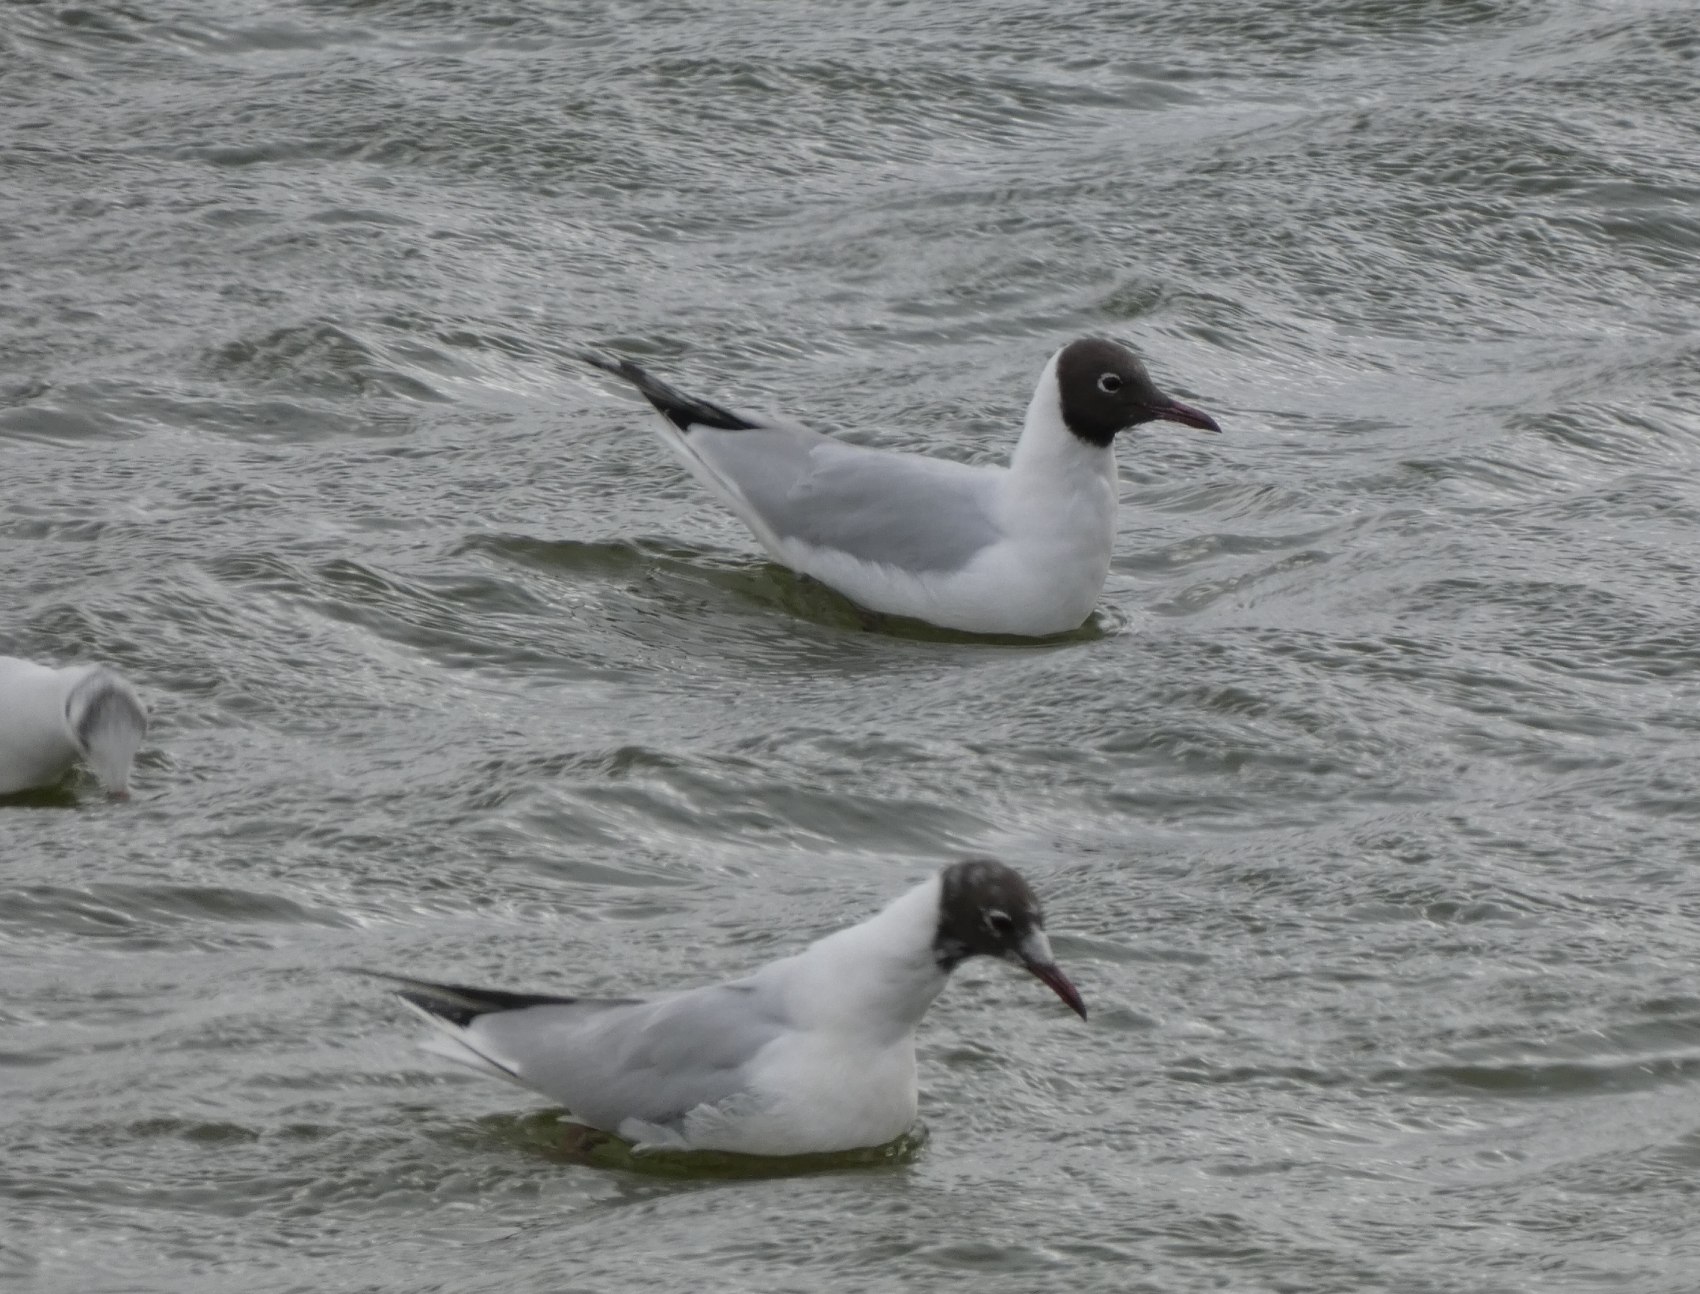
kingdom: Animalia
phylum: Chordata
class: Aves
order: Charadriiformes
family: Laridae
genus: Chroicocephalus
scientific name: Chroicocephalus ridibundus
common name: Hættemåge
